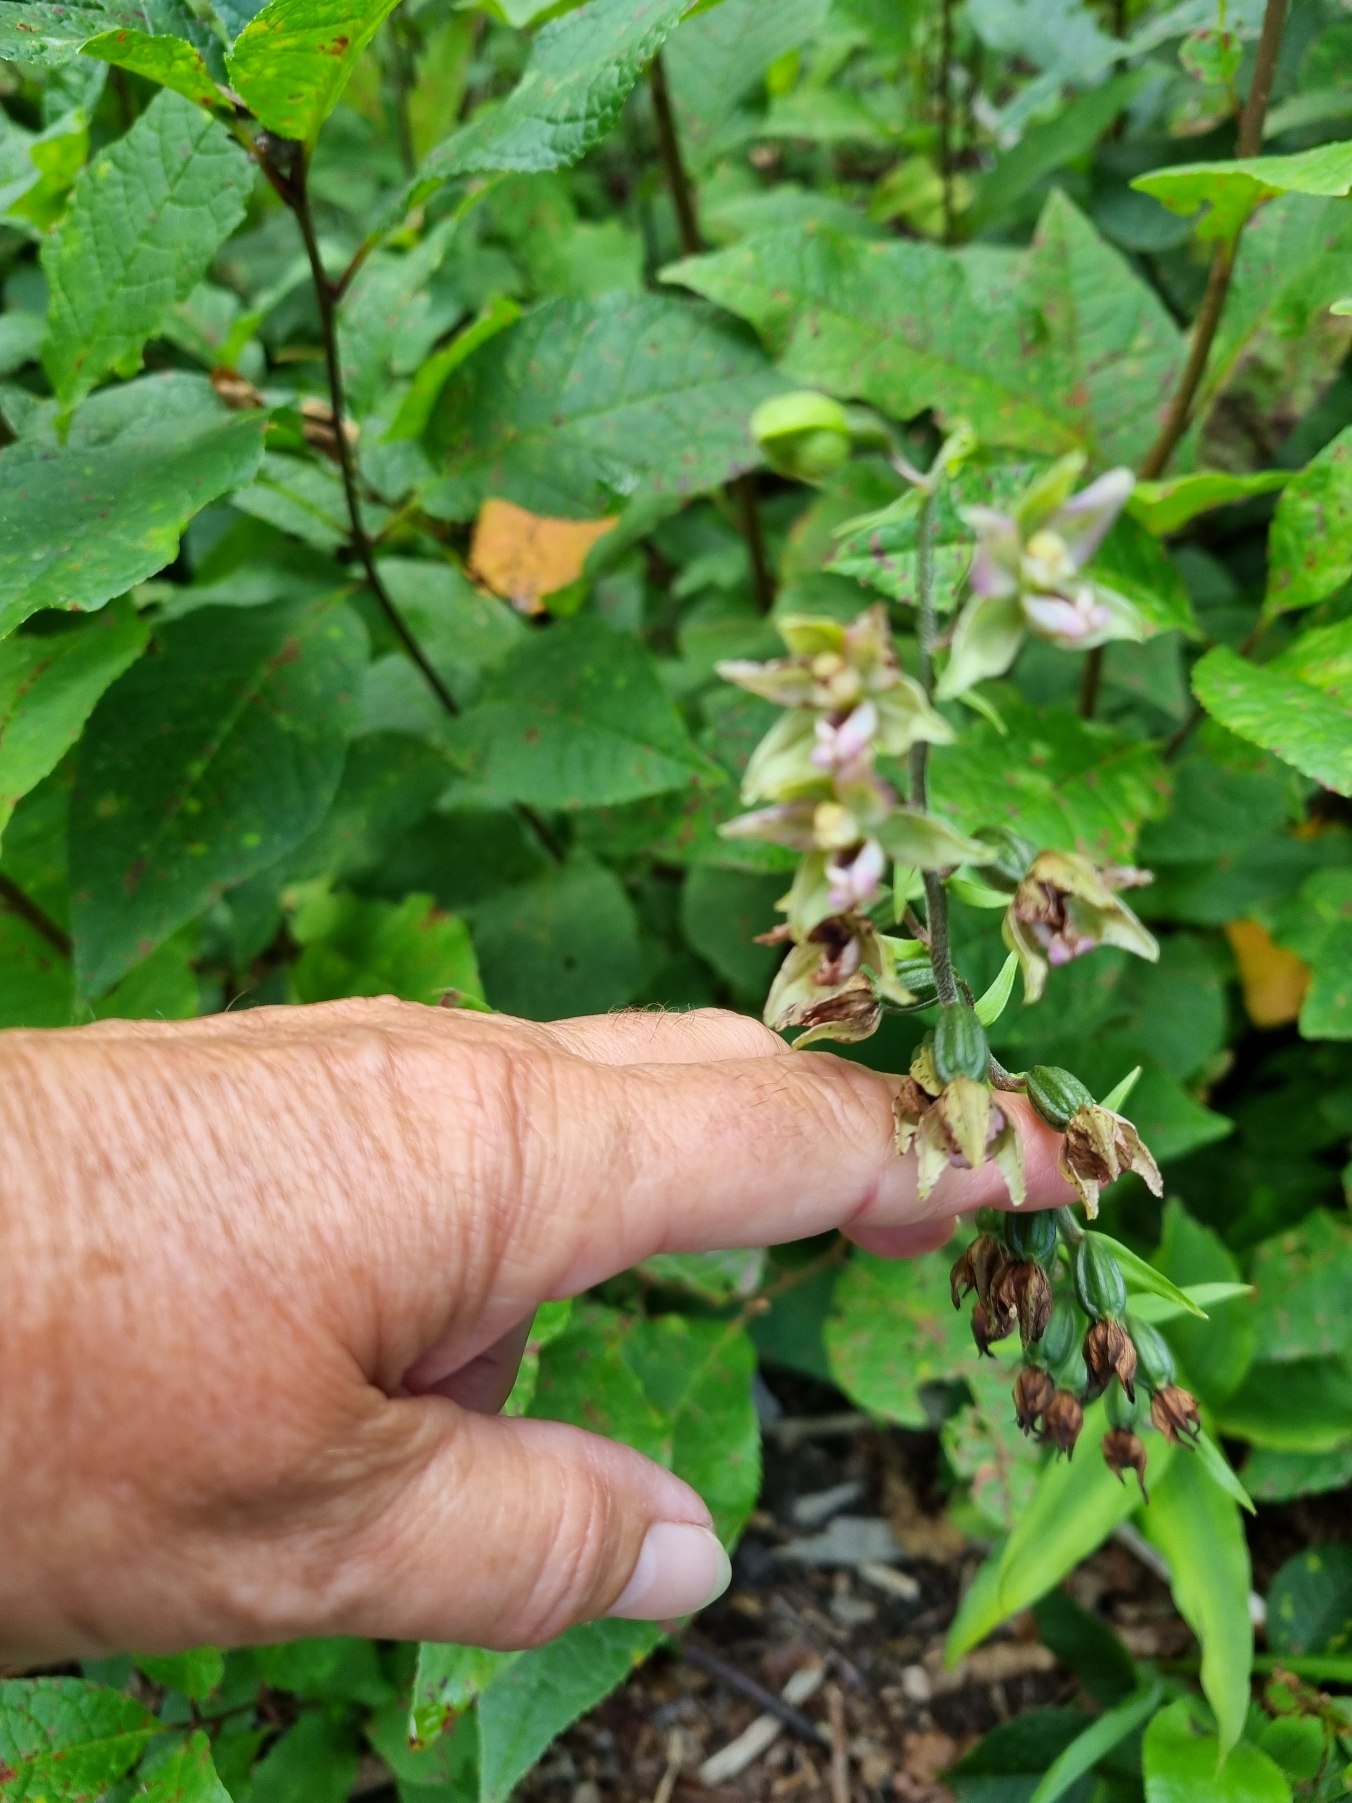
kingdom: Plantae
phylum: Tracheophyta
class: Liliopsida
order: Asparagales
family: Orchidaceae
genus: Epipactis
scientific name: Epipactis helleborine
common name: Skov-hullæbe
